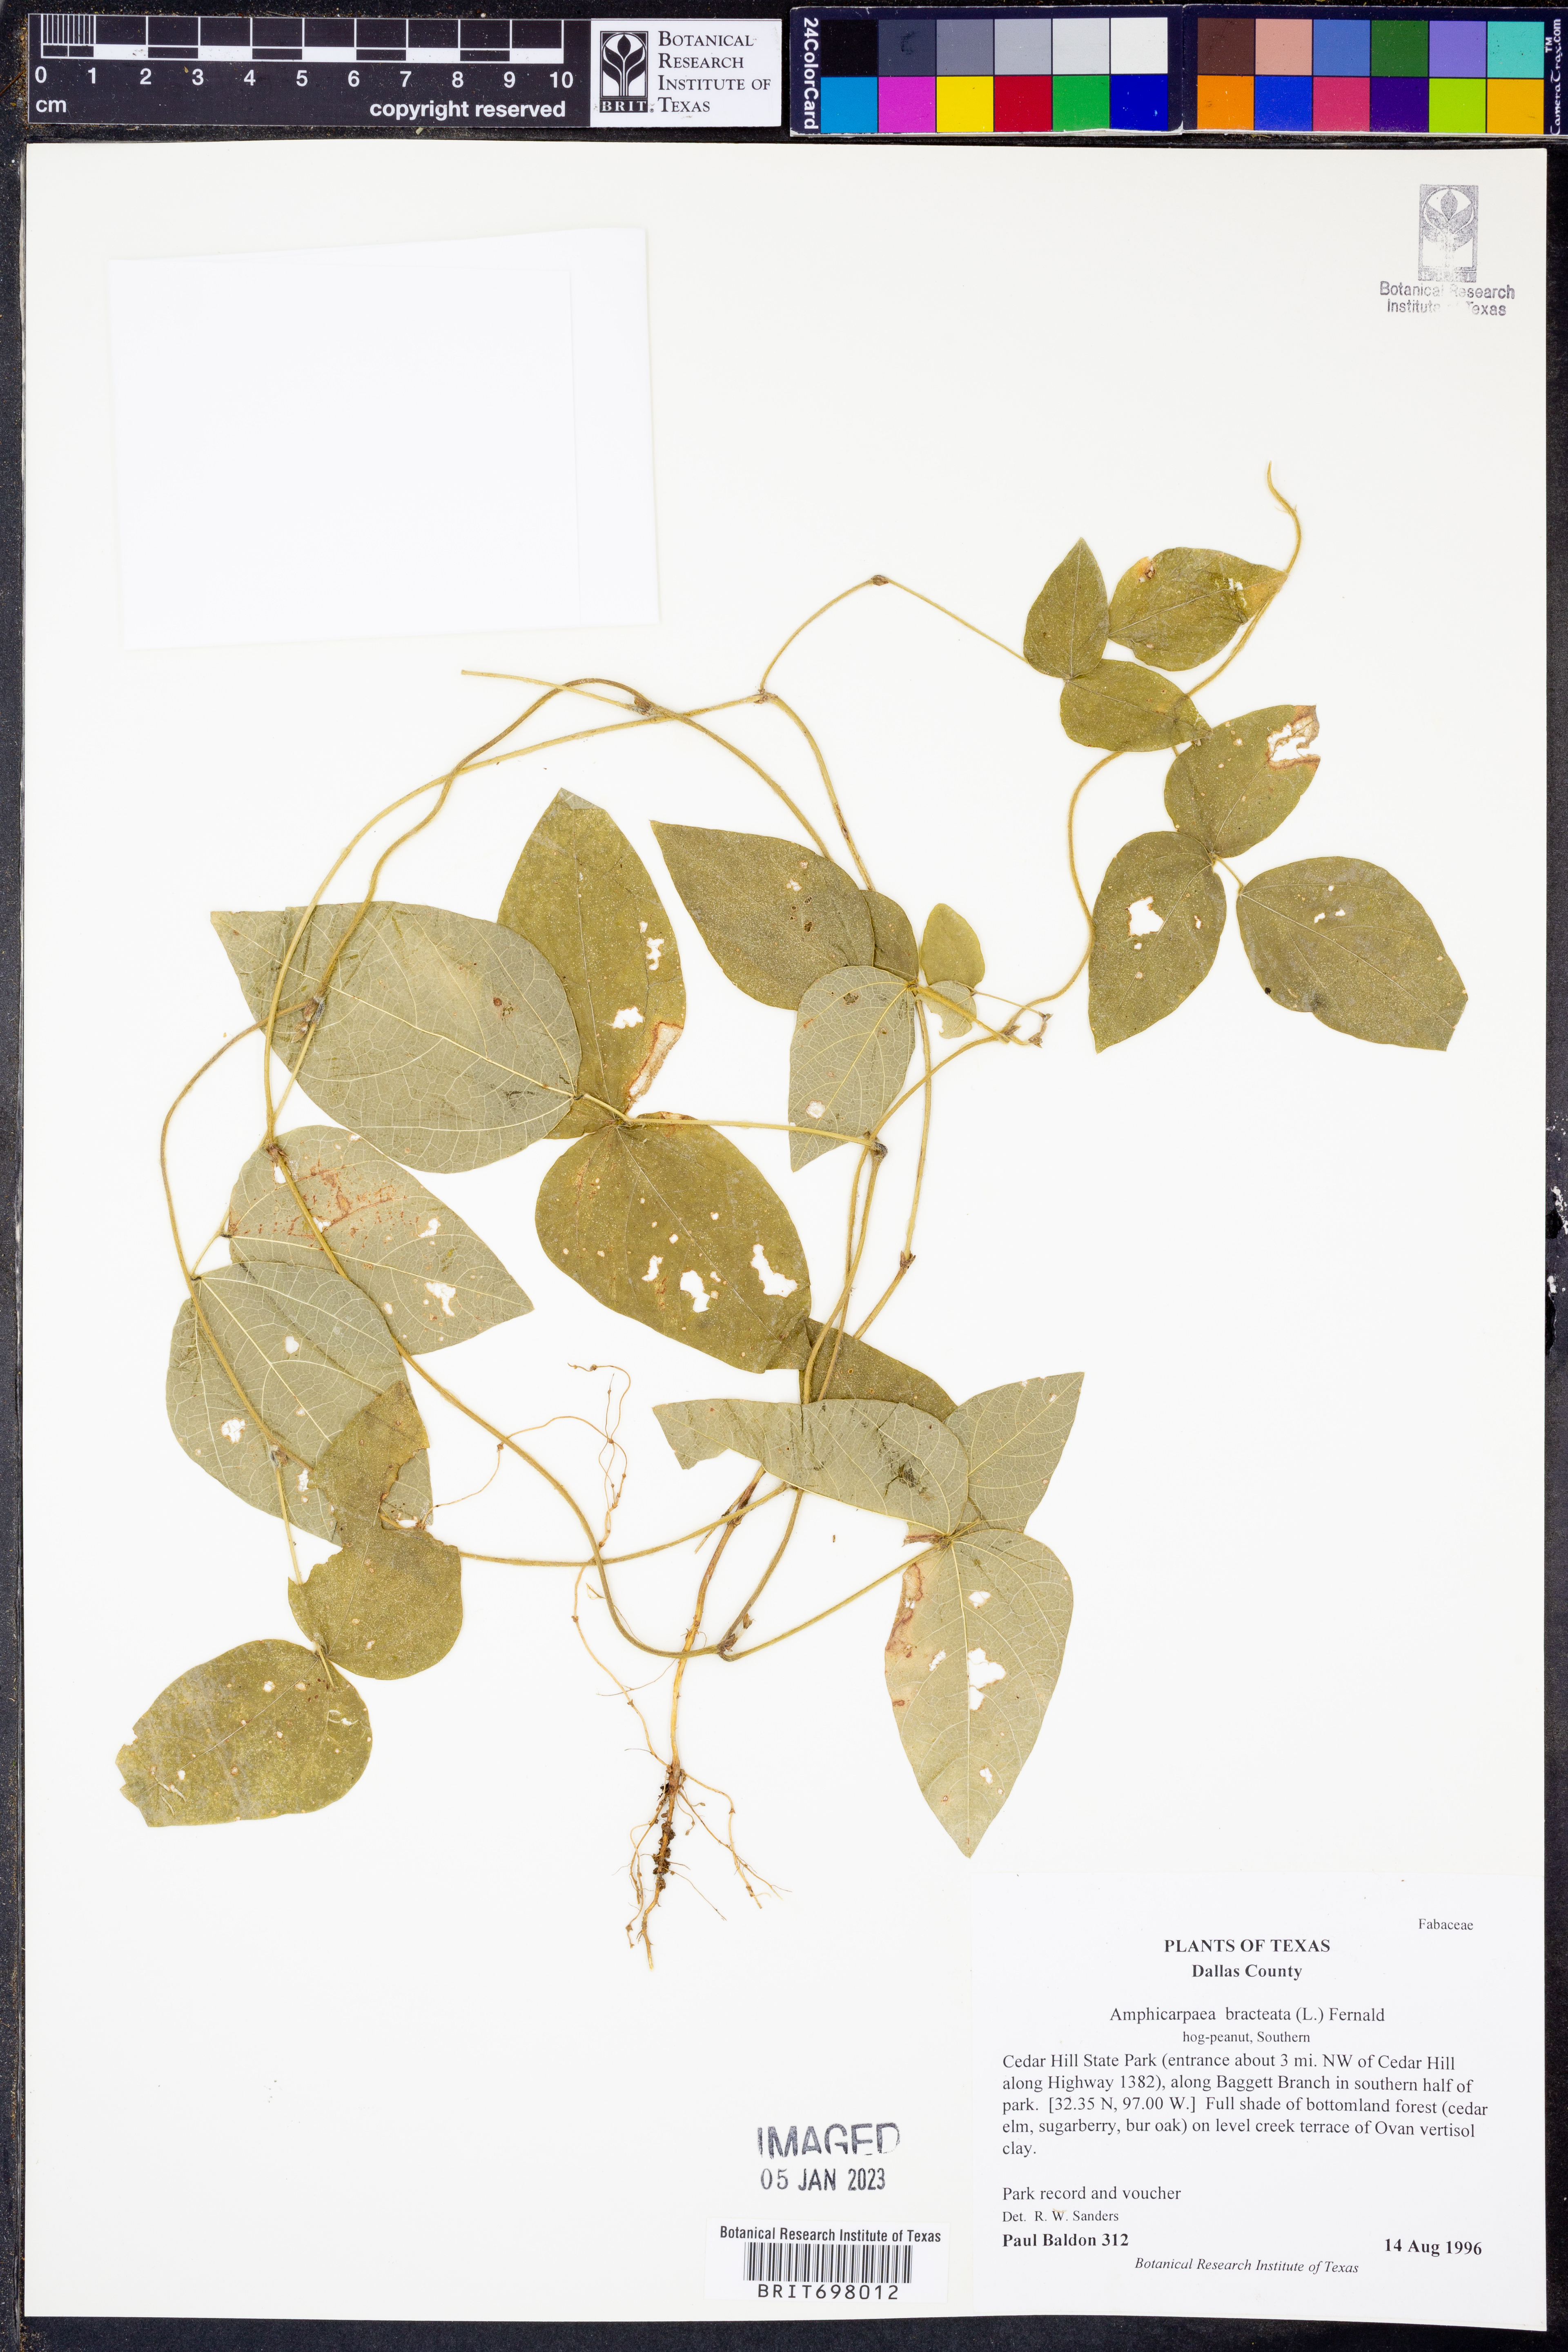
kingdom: Plantae
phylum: Tracheophyta
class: Magnoliopsida
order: Fabales
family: Fabaceae
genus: Amphicarpaea
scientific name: Amphicarpaea bracteata
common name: American hog peanut
